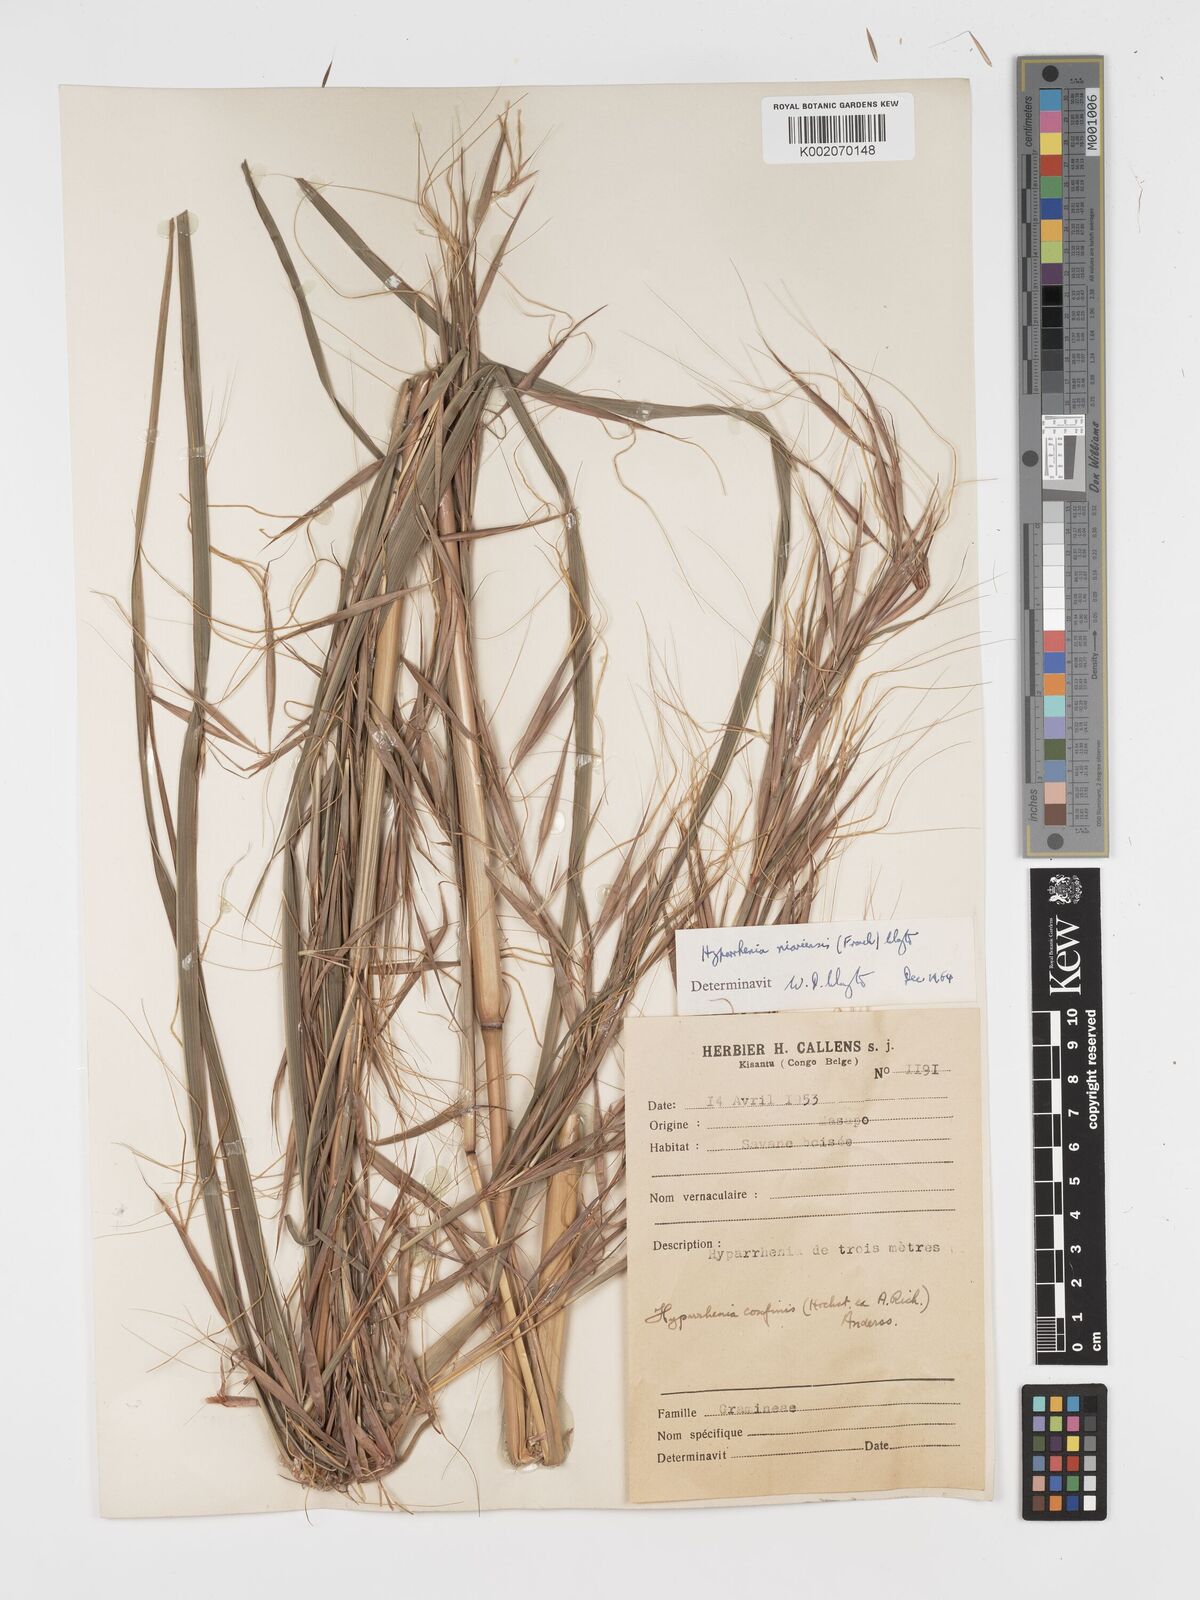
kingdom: Plantae
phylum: Tracheophyta
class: Liliopsida
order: Poales
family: Poaceae
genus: Hyparrhenia
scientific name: Hyparrhenia niariensis
